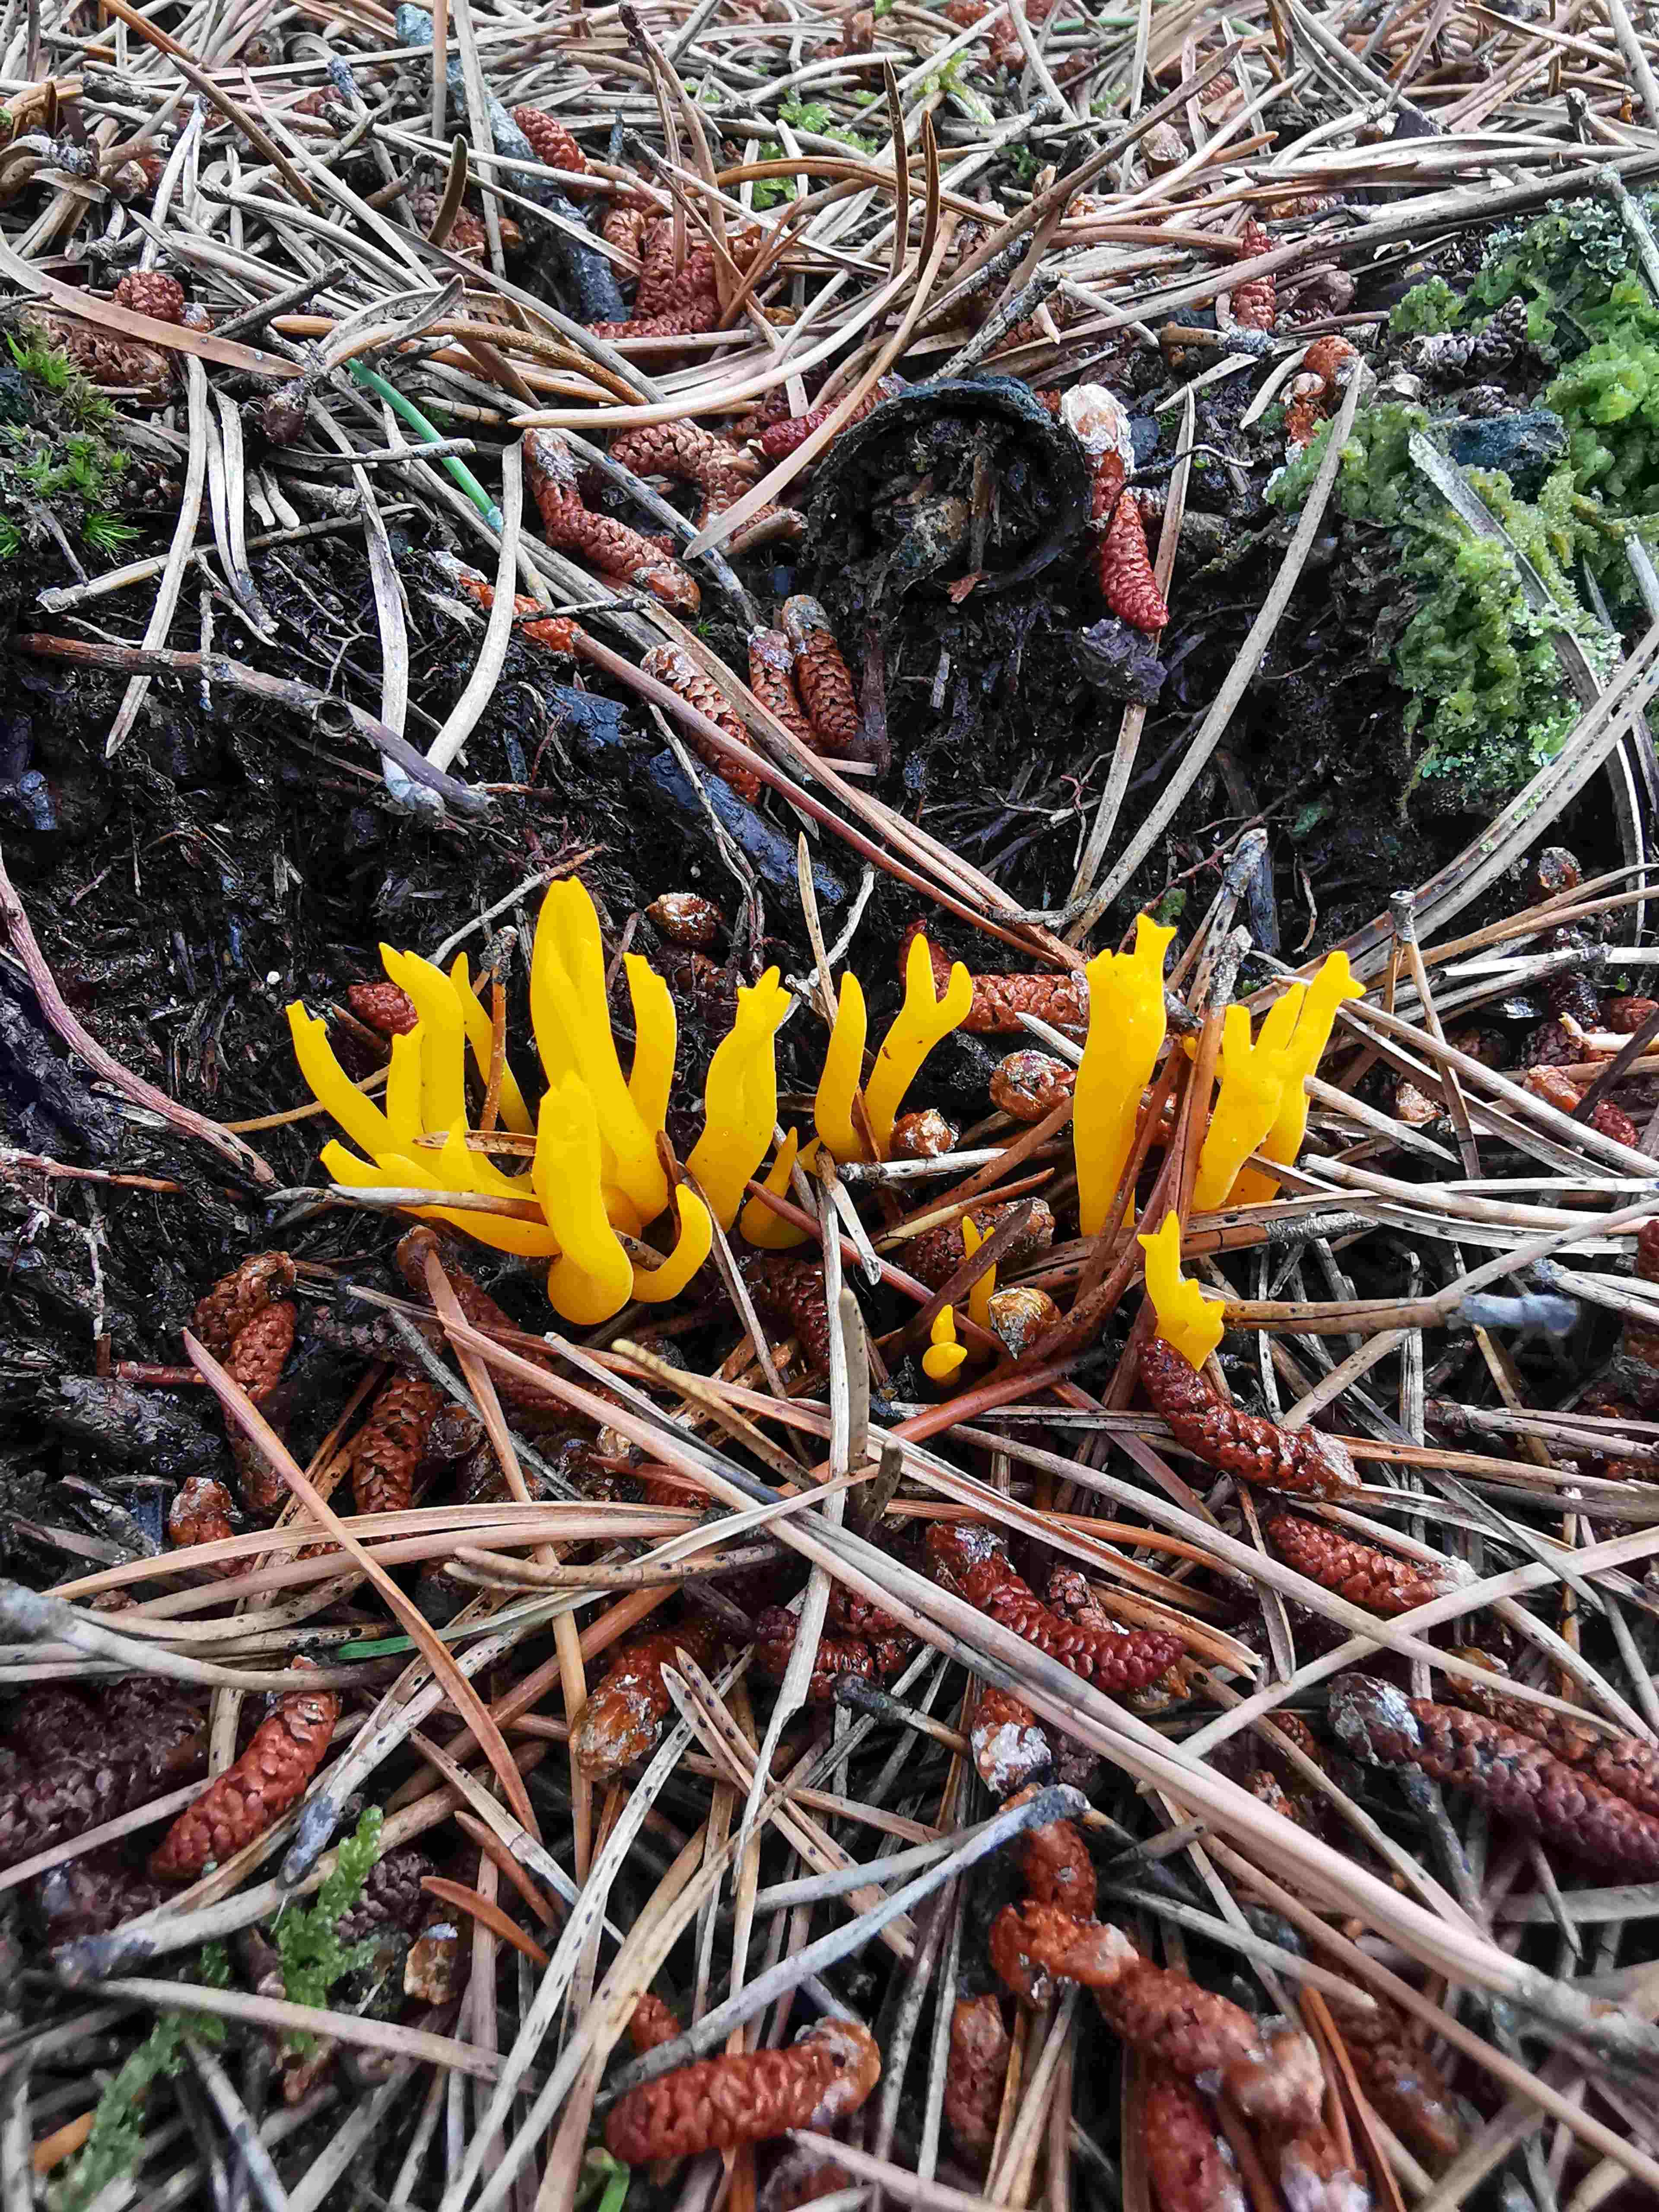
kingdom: Fungi
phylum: Basidiomycota
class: Dacrymycetes
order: Dacrymycetales
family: Dacrymycetaceae
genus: Calocera
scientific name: Calocera viscosa
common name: almindelig guldgaffel
